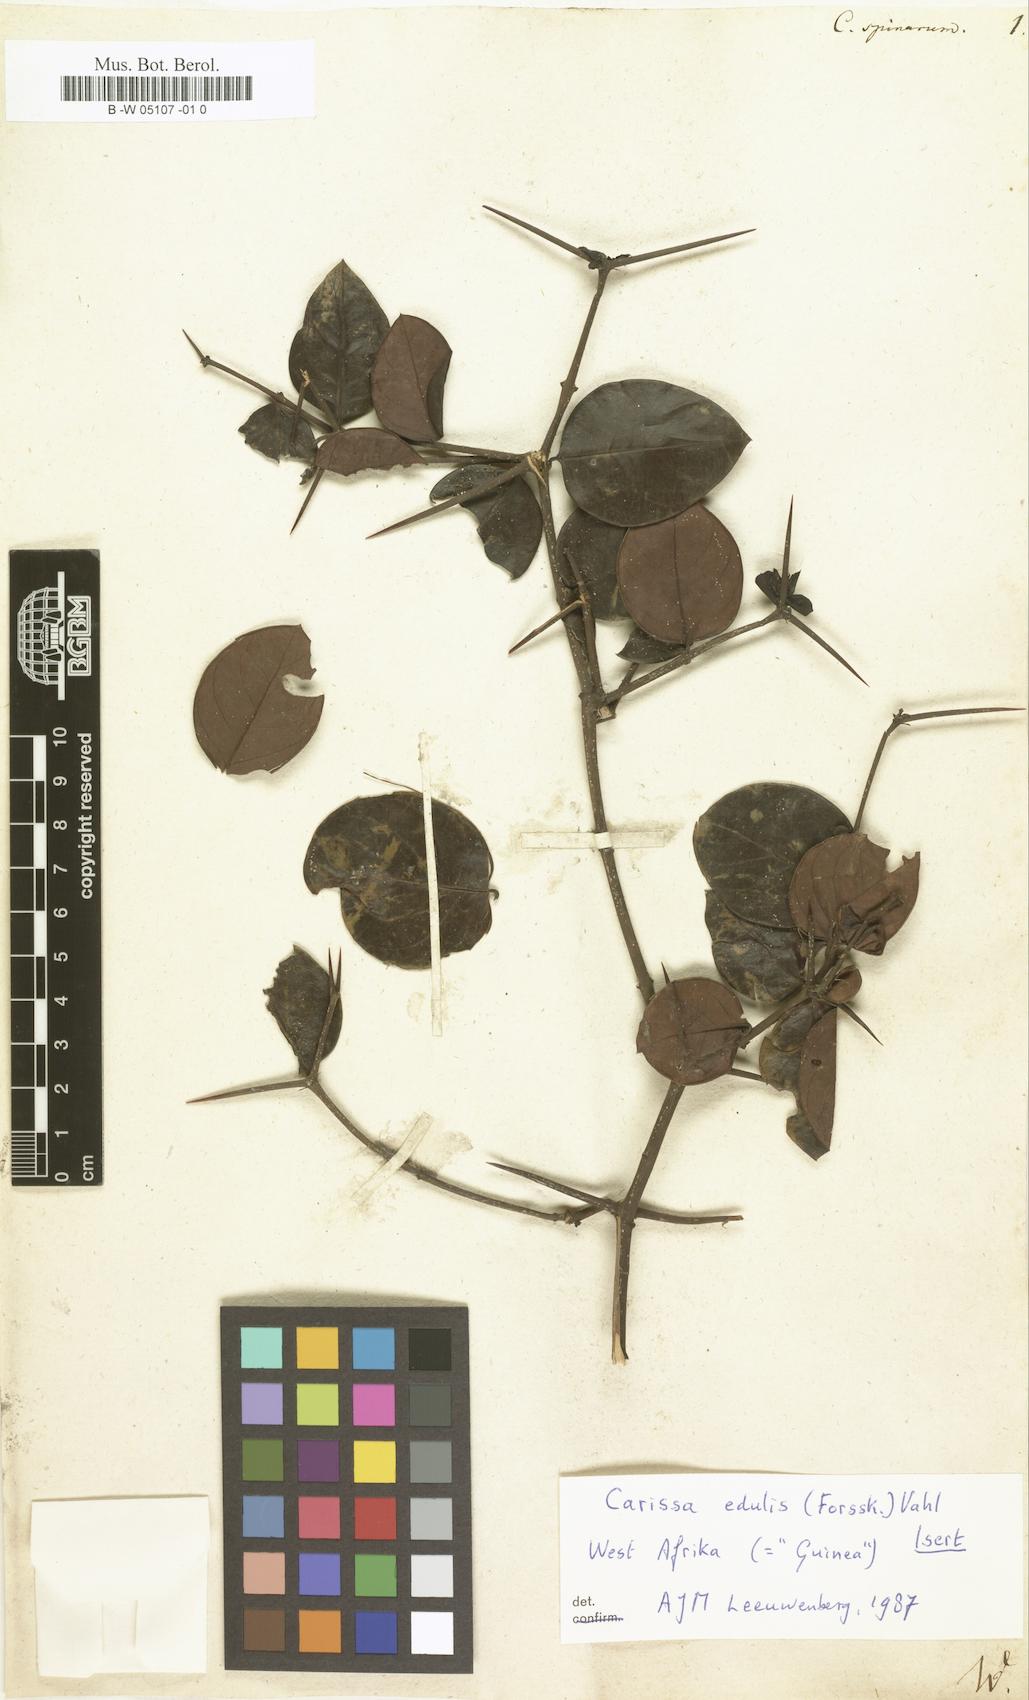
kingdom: Plantae
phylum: Tracheophyta
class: Magnoliopsida
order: Gentianales
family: Apocynaceae
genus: Carissa
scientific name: Carissa spinarum
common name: Egyptian carissa
